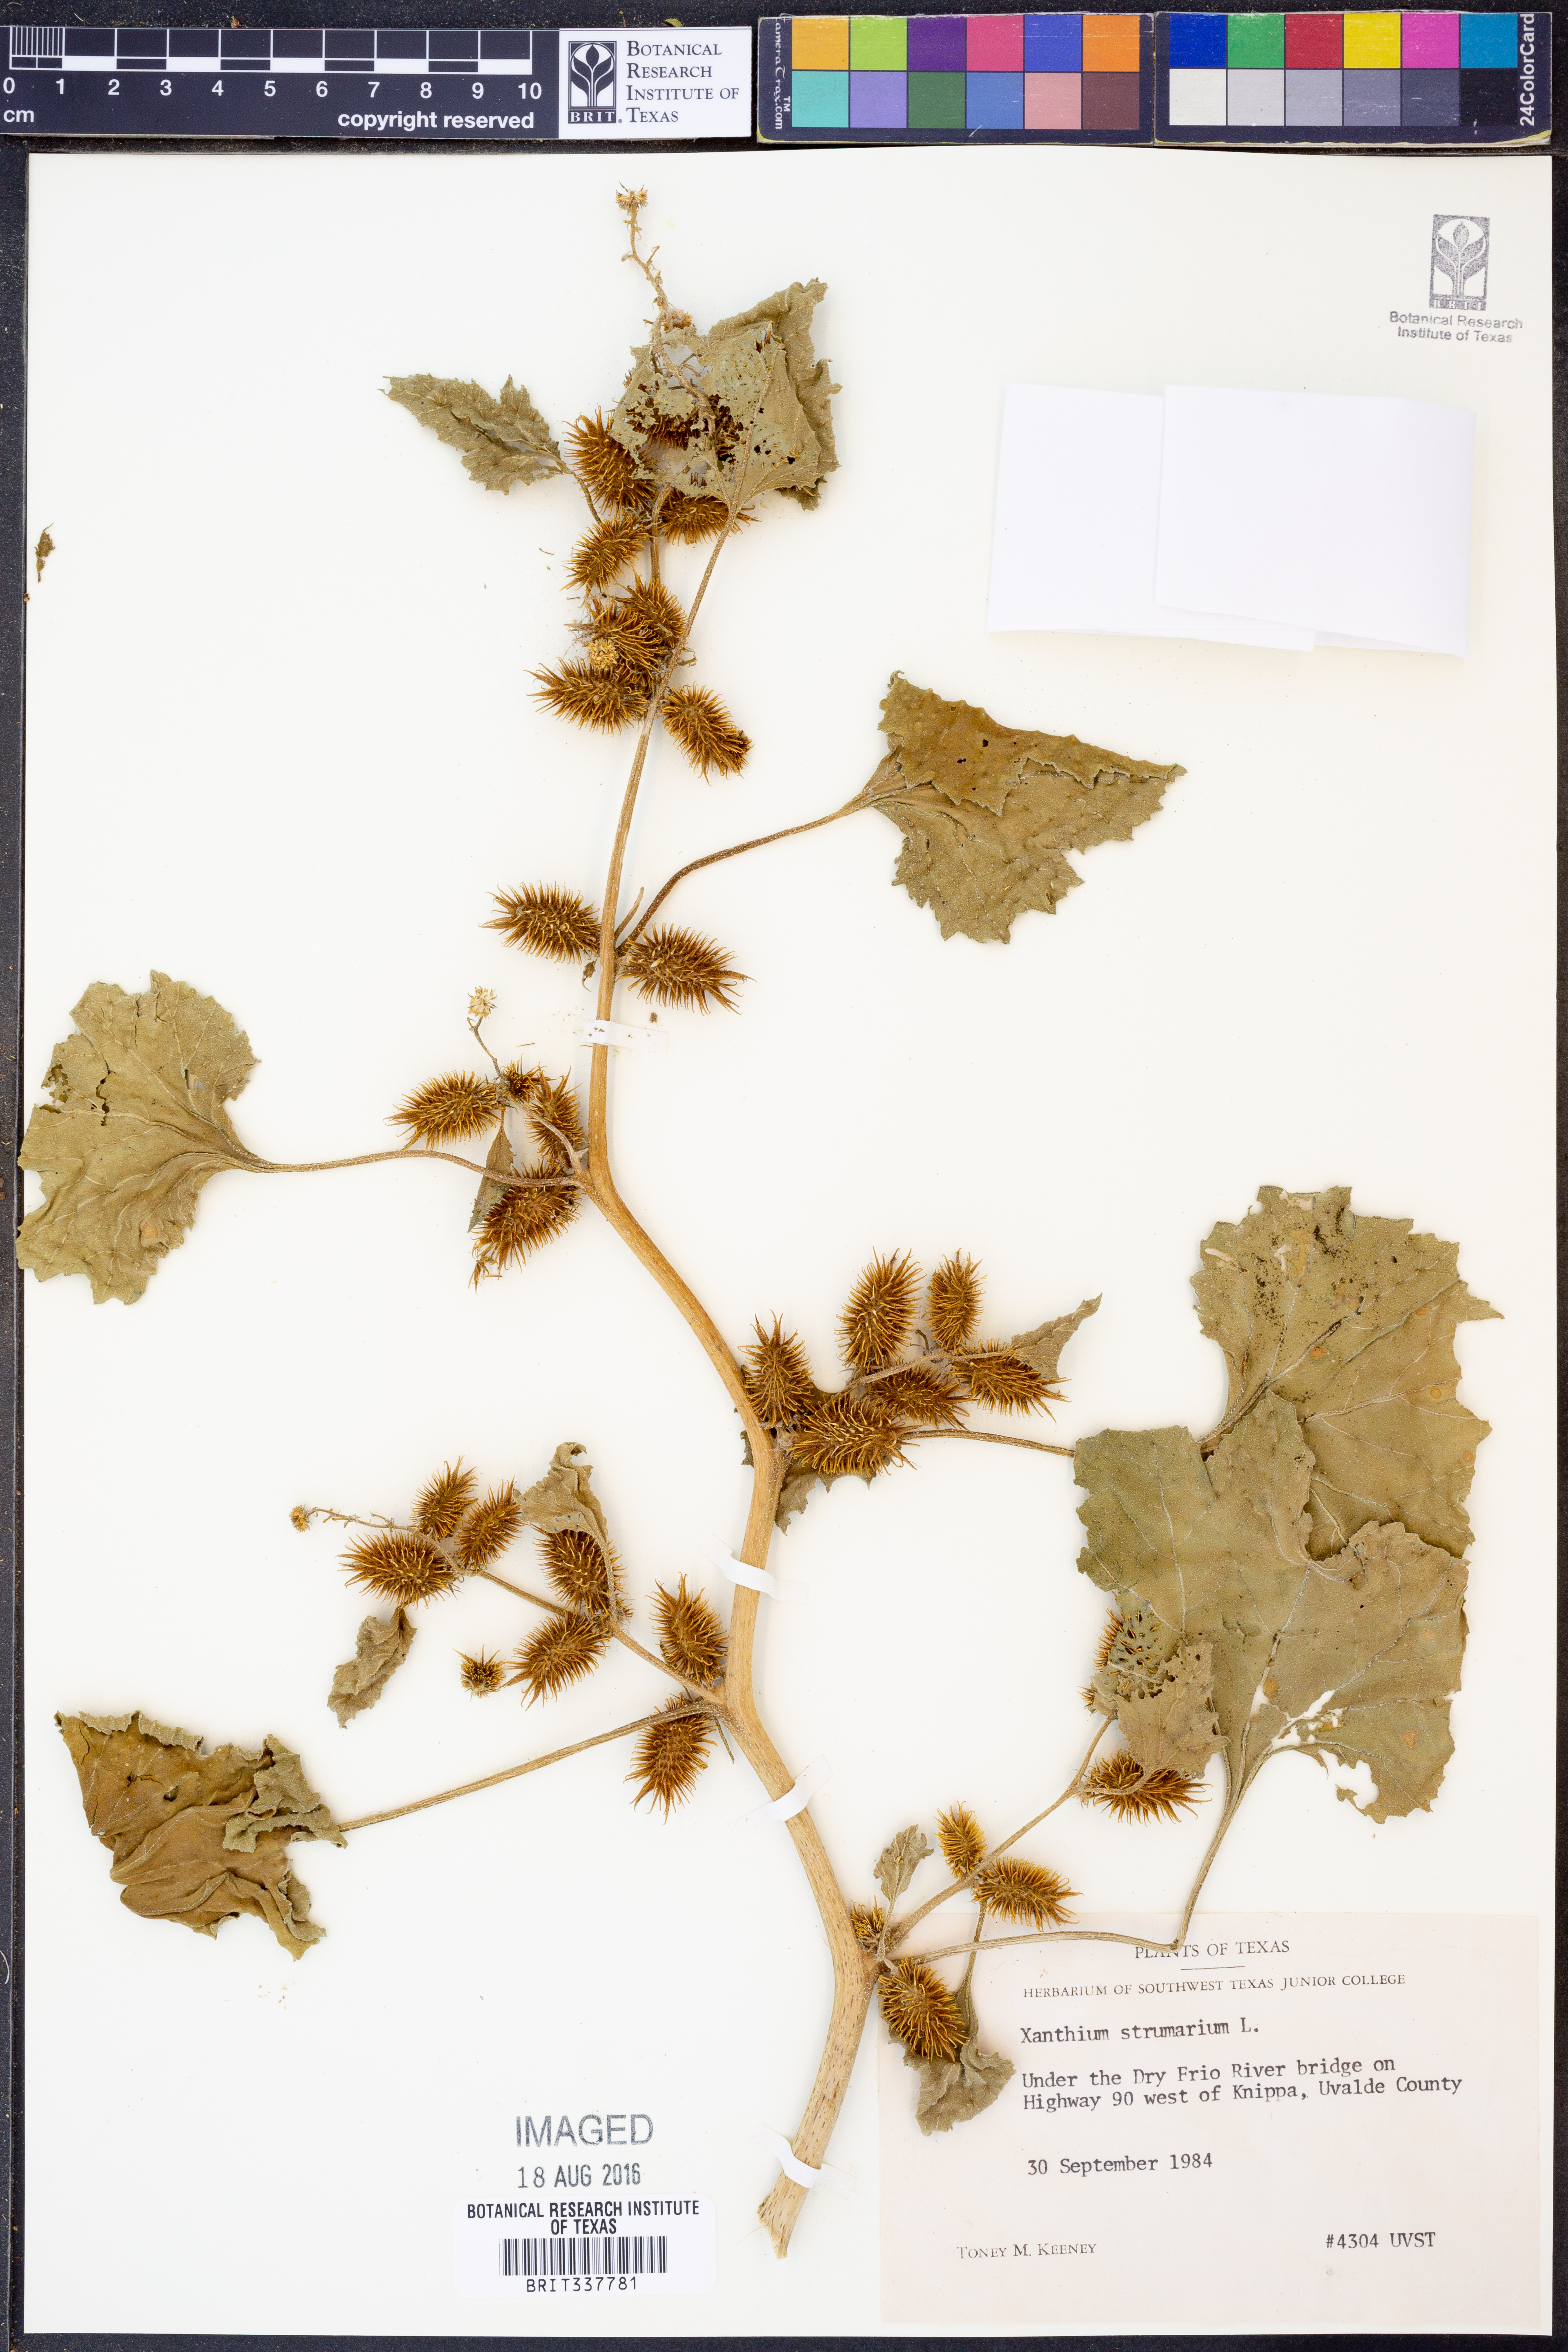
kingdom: Plantae
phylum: Tracheophyta
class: Magnoliopsida
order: Asterales
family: Asteraceae
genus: Xanthium
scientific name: Xanthium strumarium
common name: Rough cocklebur
